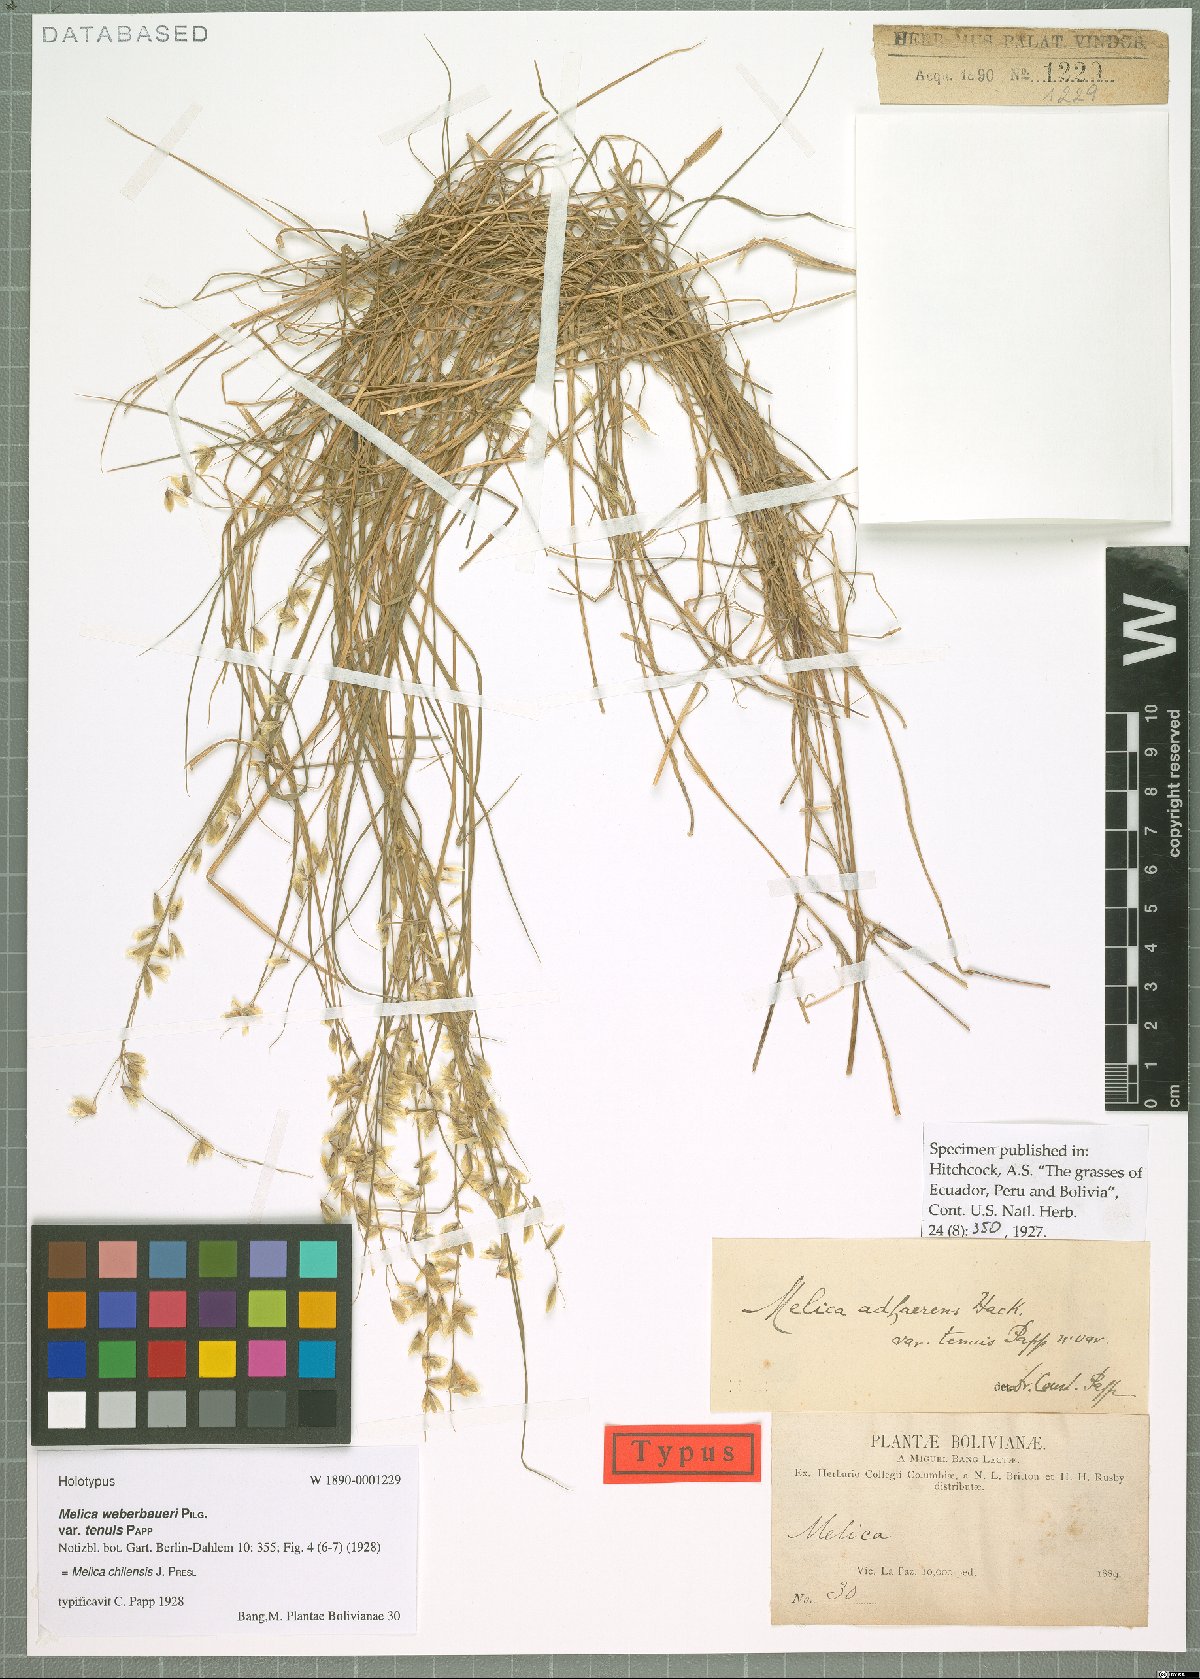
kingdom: Plantae
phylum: Tracheophyta
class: Liliopsida
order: Poales
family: Poaceae
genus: Melica
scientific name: Melica chilensis
